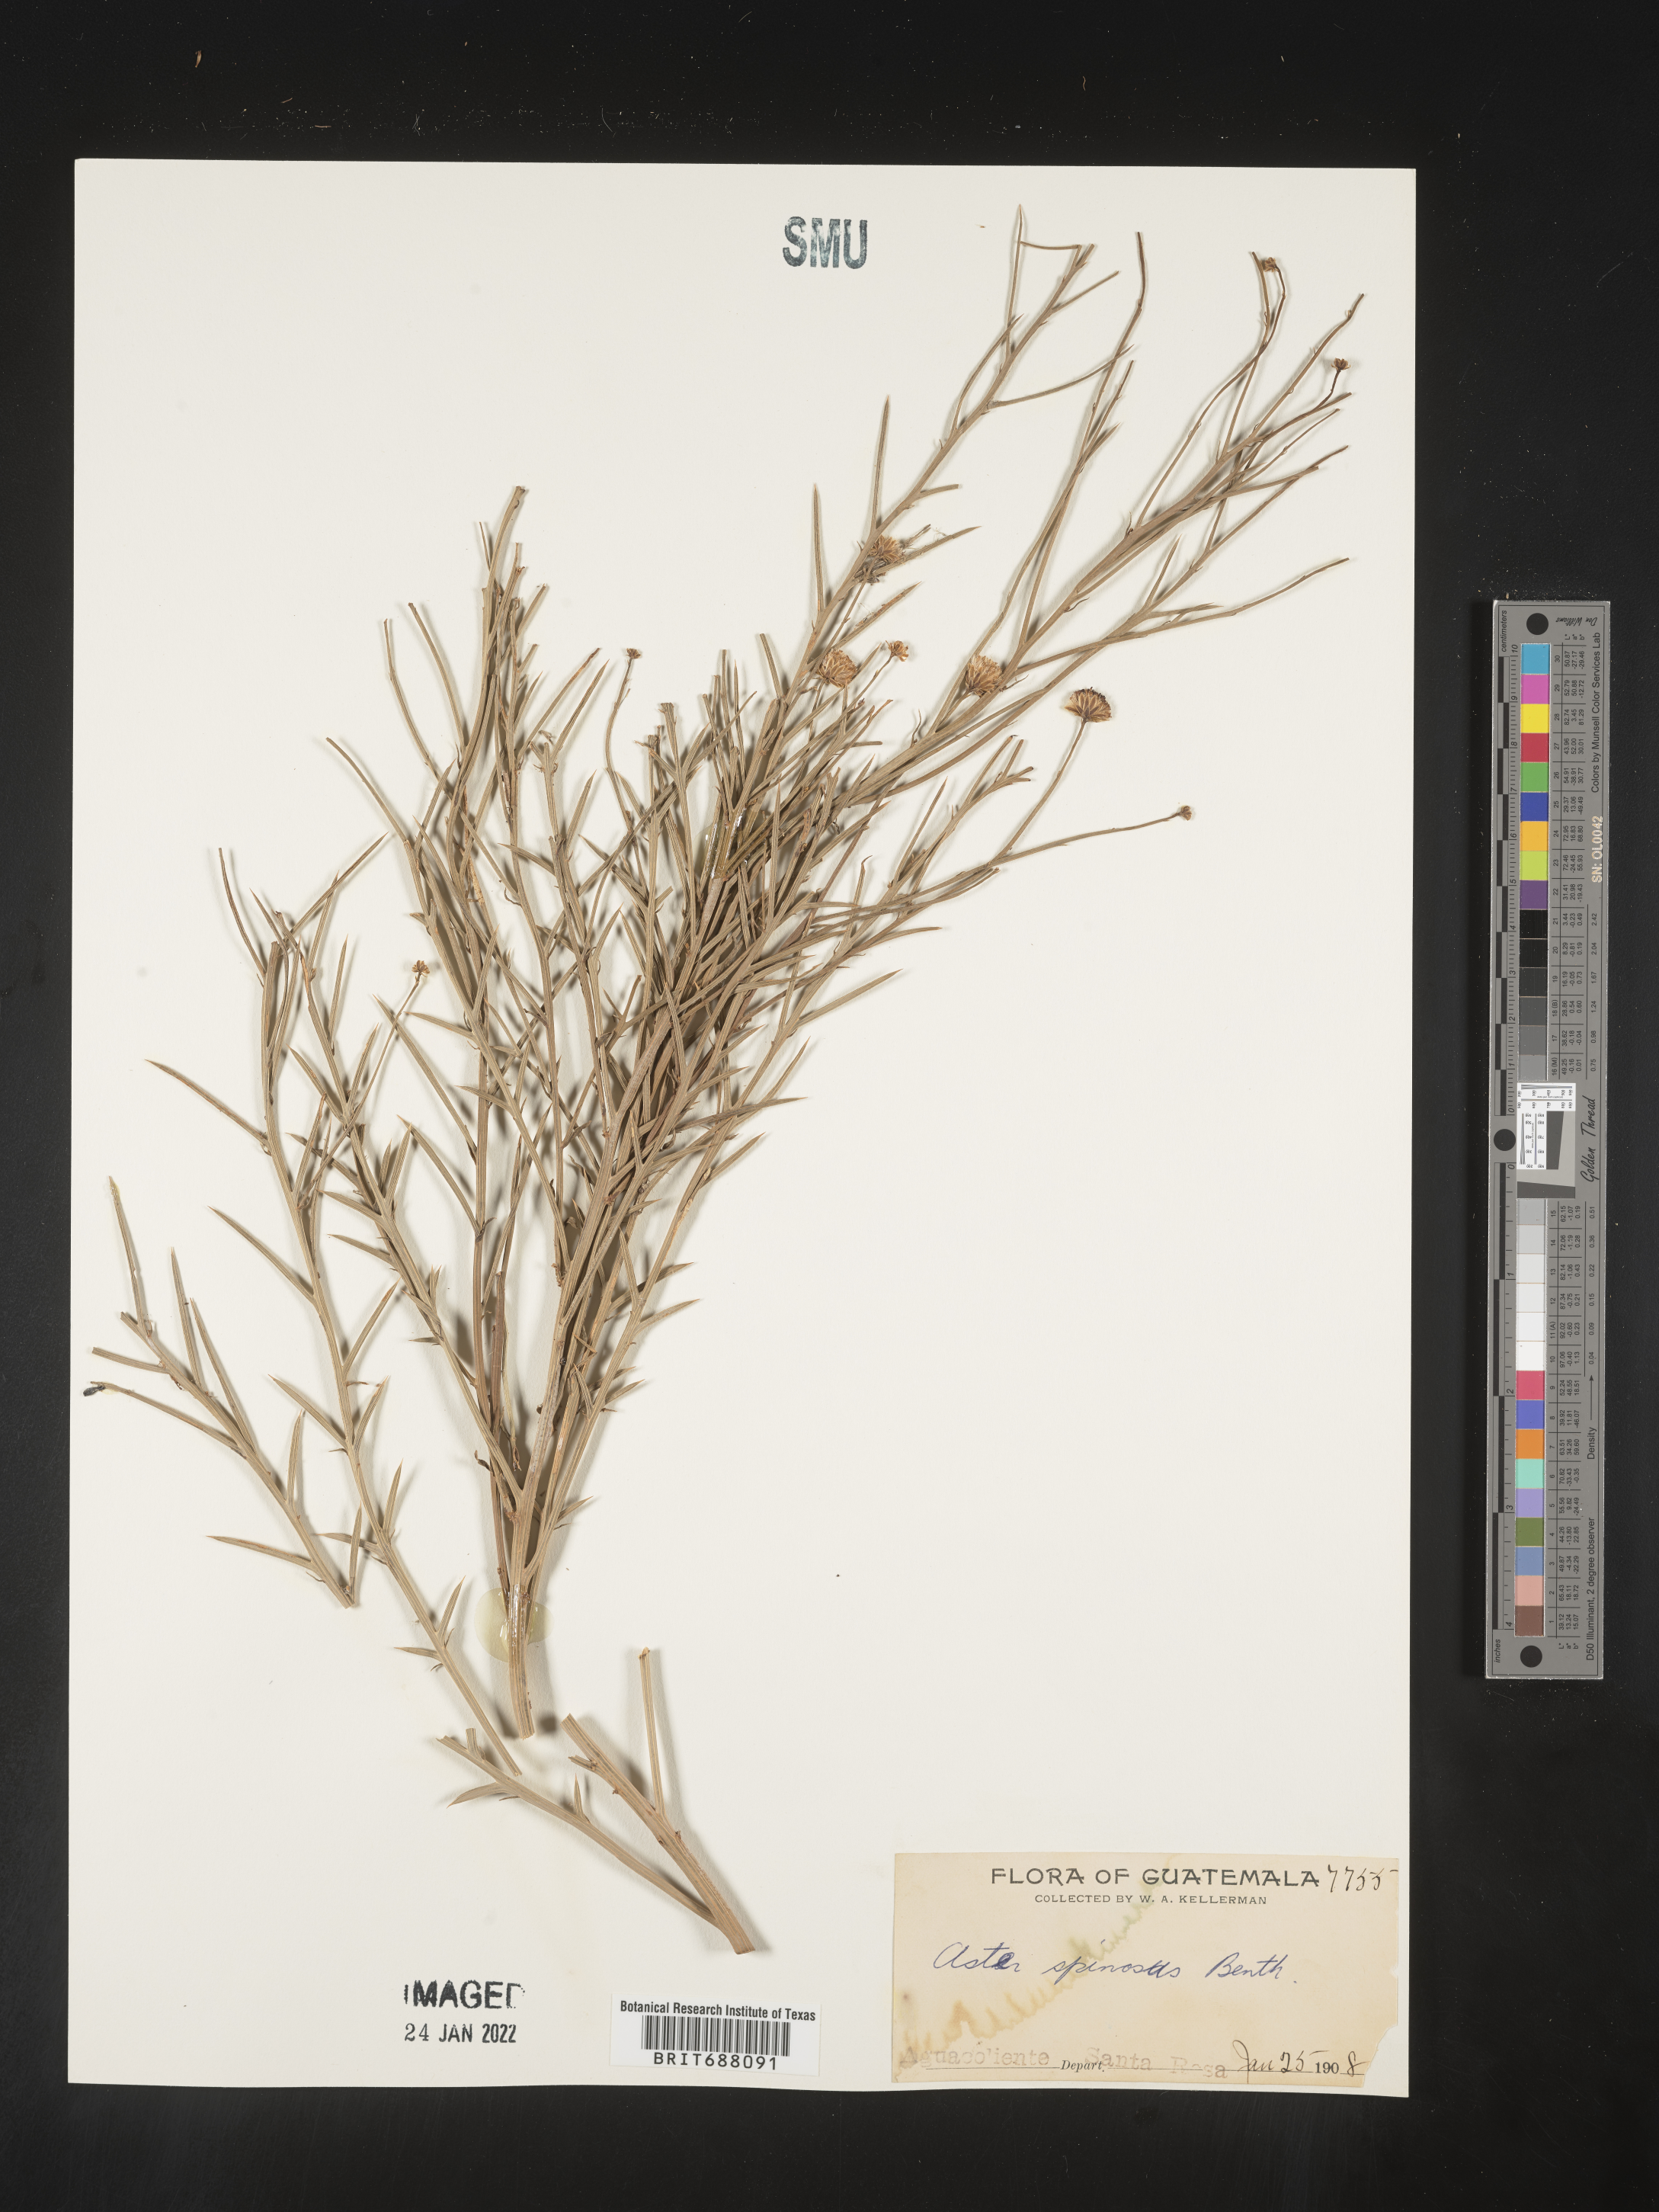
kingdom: Plantae
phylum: Tracheophyta
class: Magnoliopsida
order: Asterales
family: Asteraceae
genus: Chloracantha
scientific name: Chloracantha
